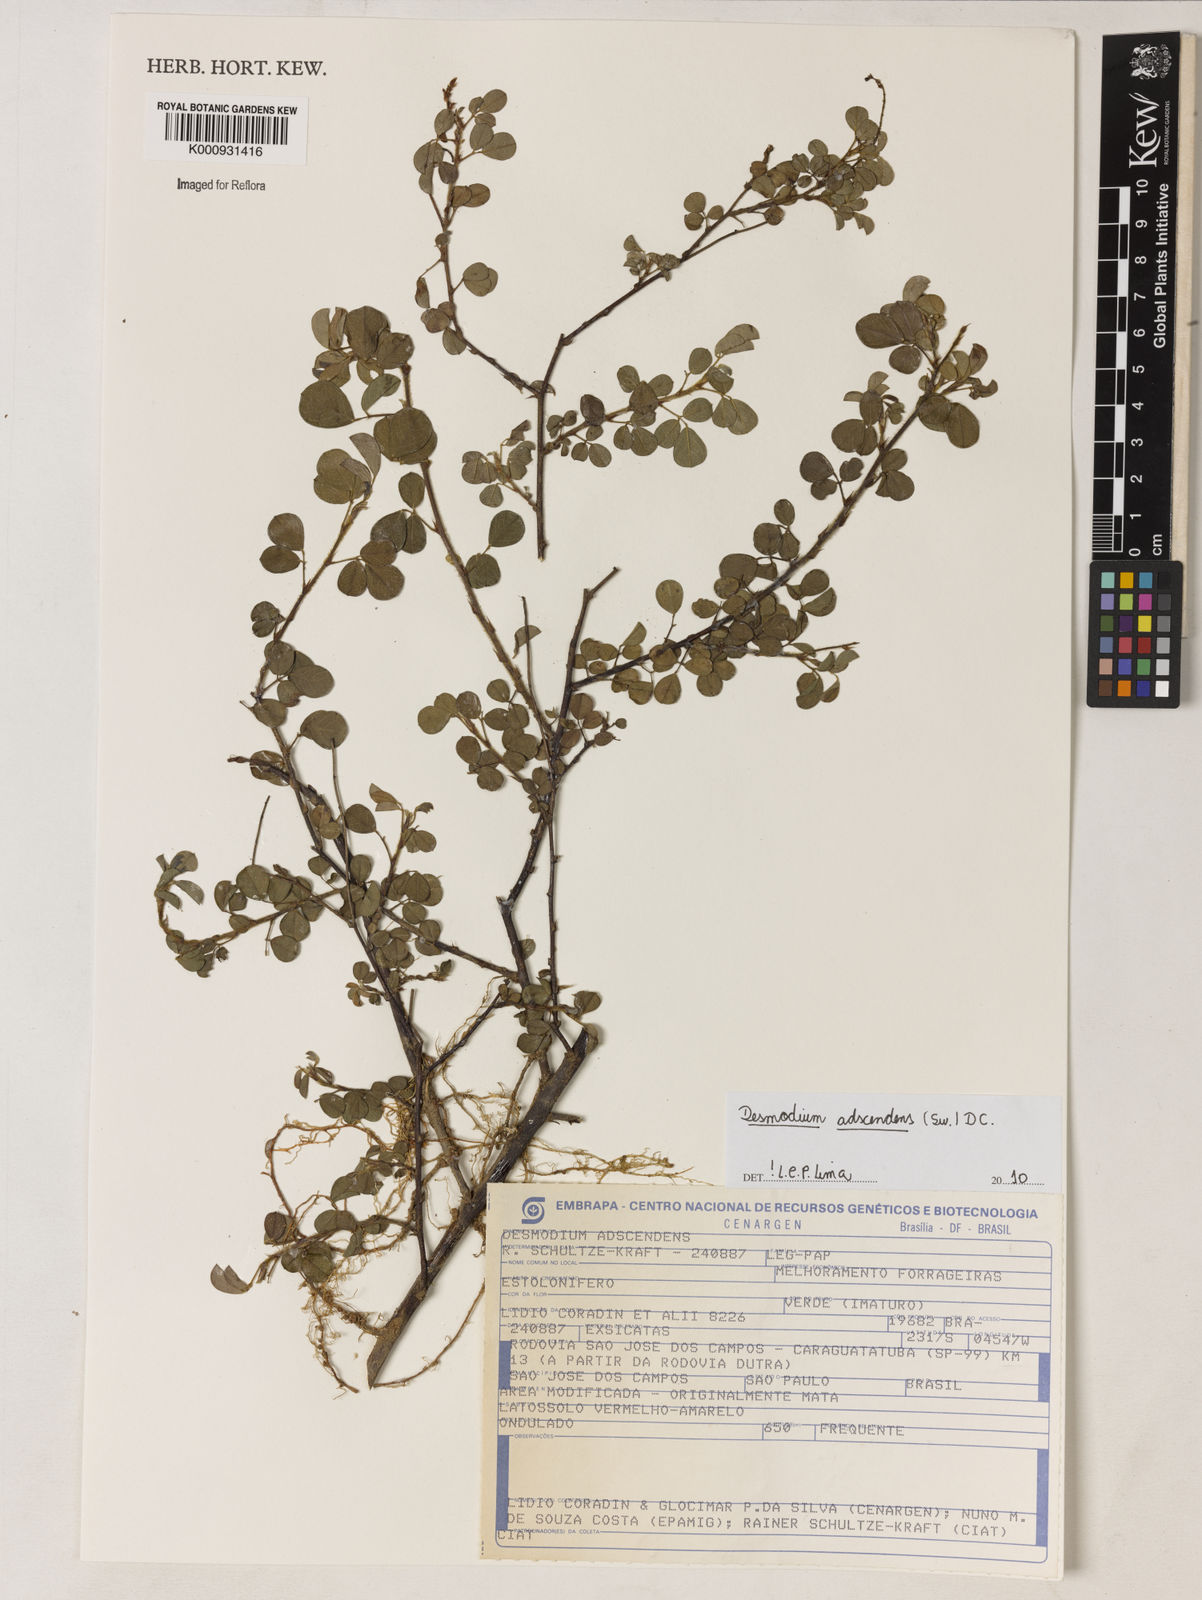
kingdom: Plantae
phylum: Tracheophyta
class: Magnoliopsida
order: Fabales
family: Fabaceae
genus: Grona
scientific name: Grona adscendens
